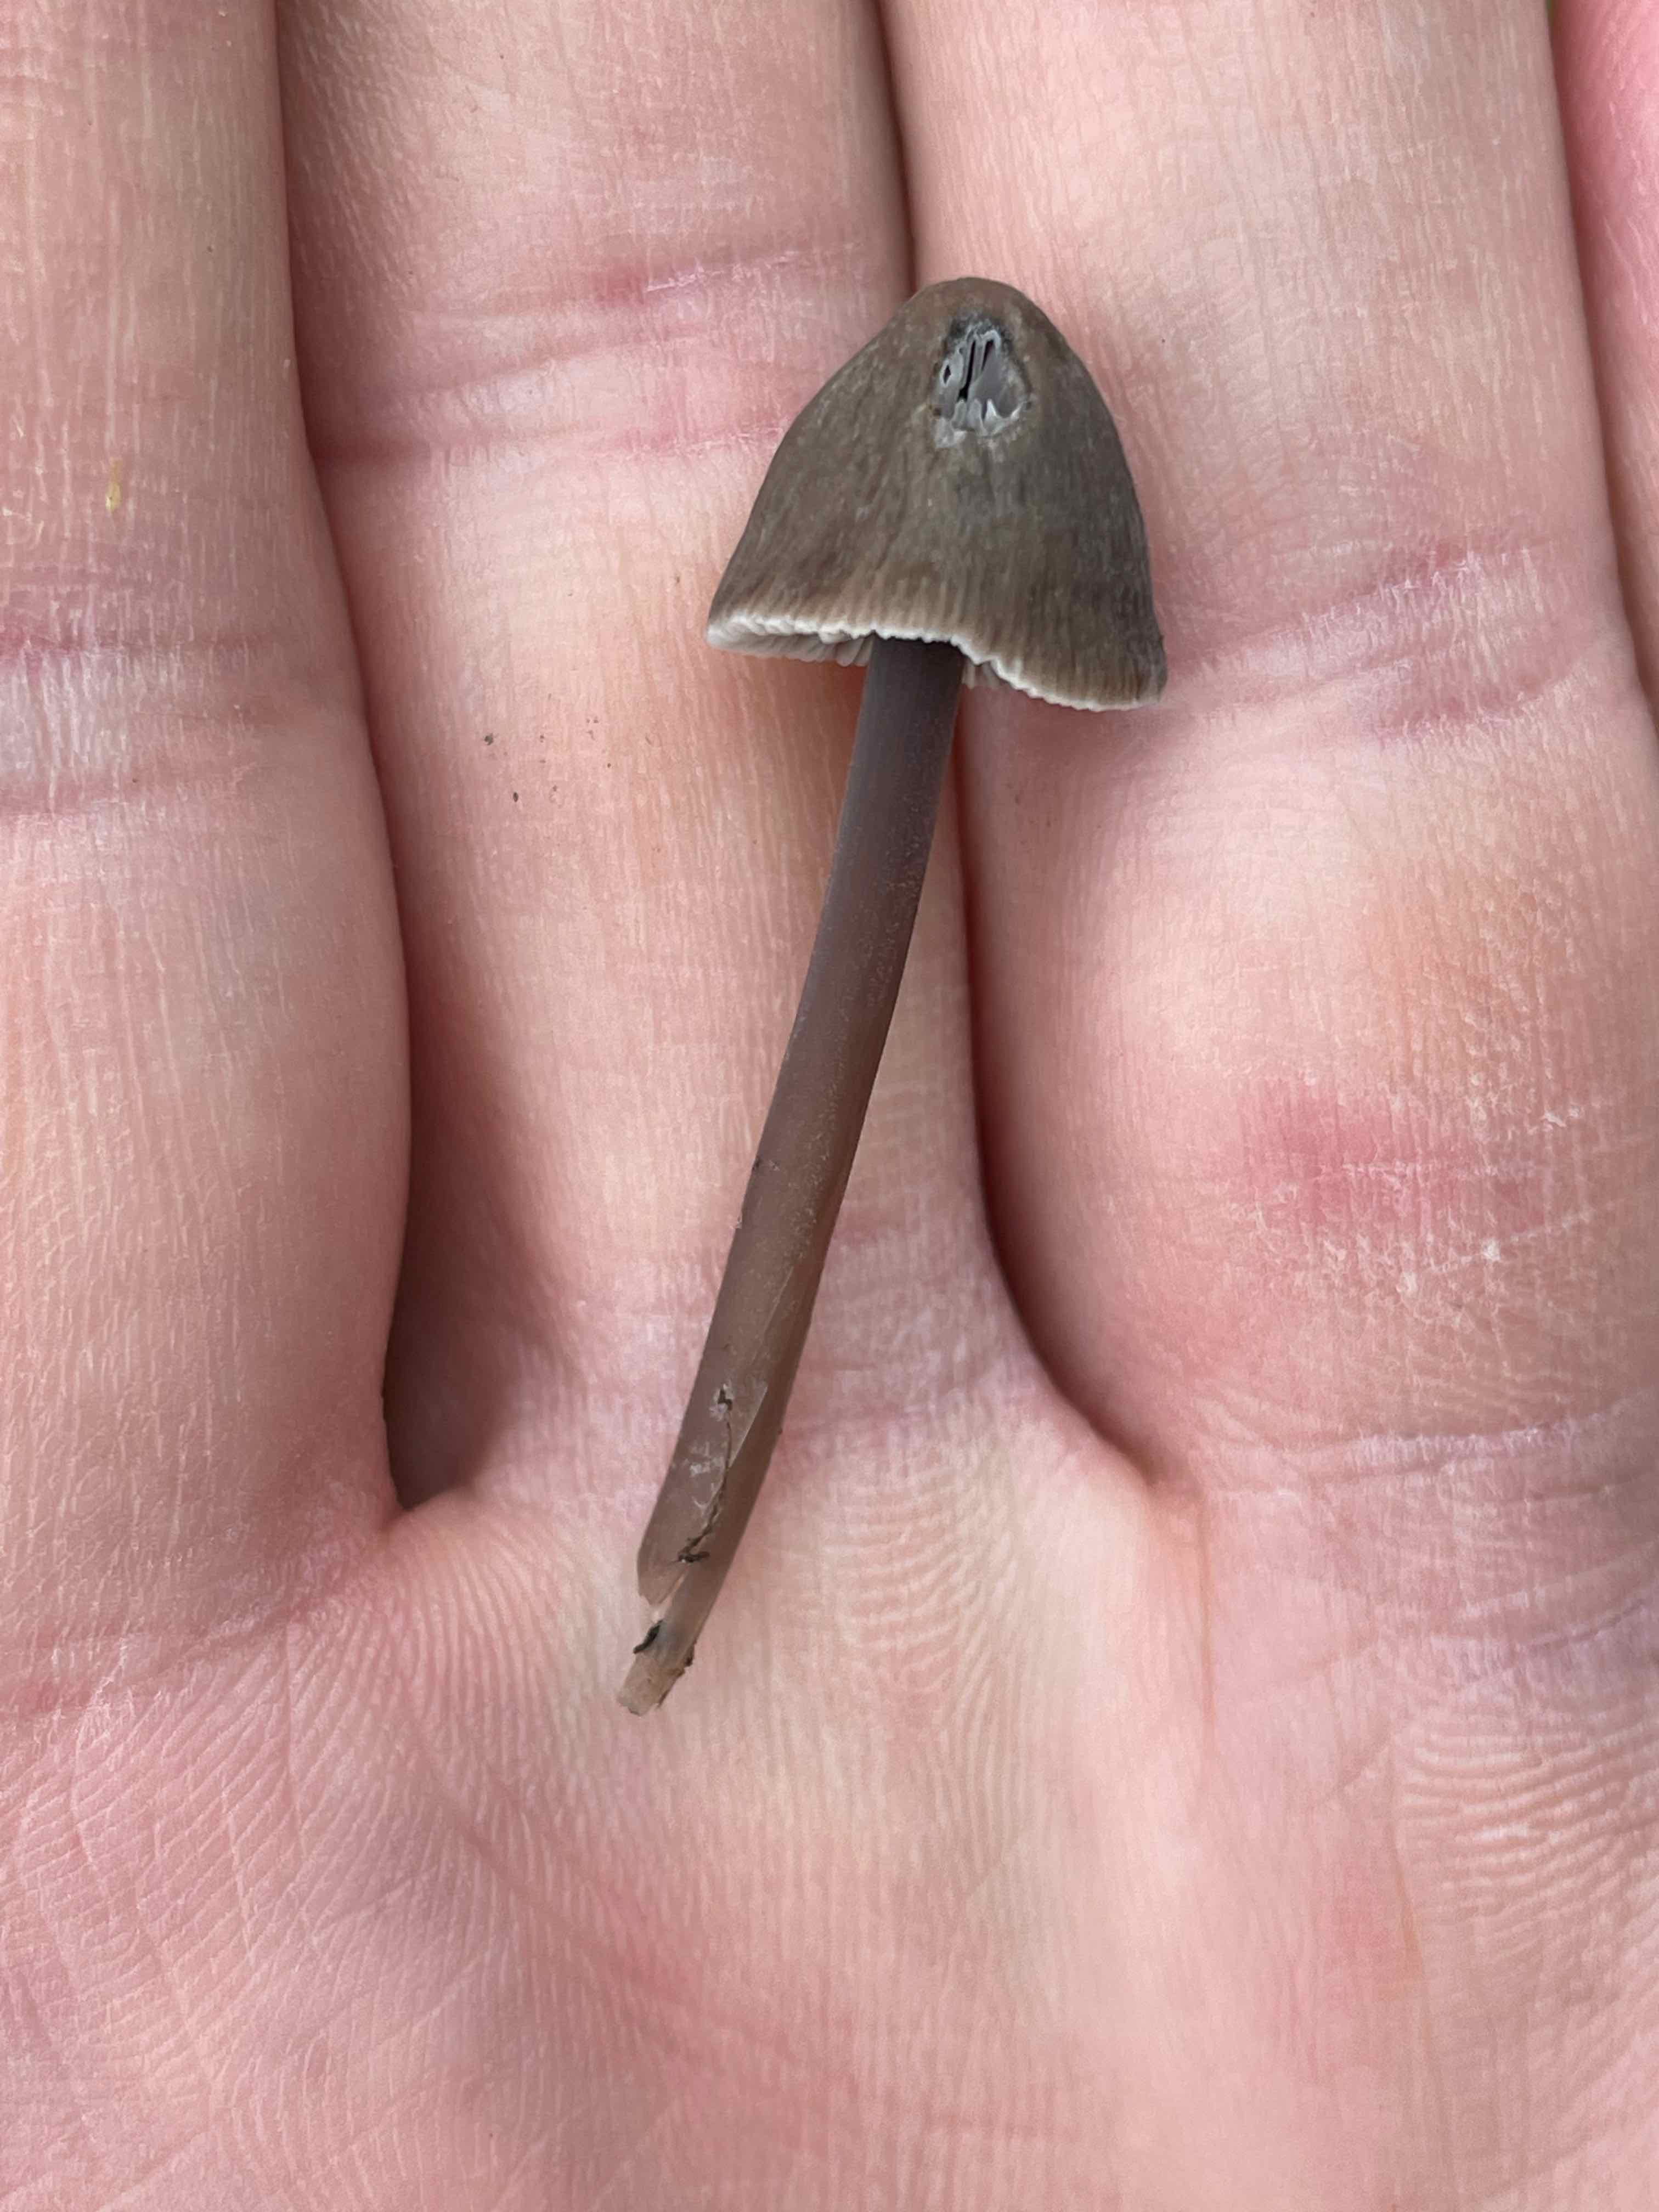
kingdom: Fungi
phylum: Basidiomycota
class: Agaricomycetes
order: Agaricales
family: Mycenaceae
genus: Mycena
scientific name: Mycena aetites
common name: plæne-huesvamp
